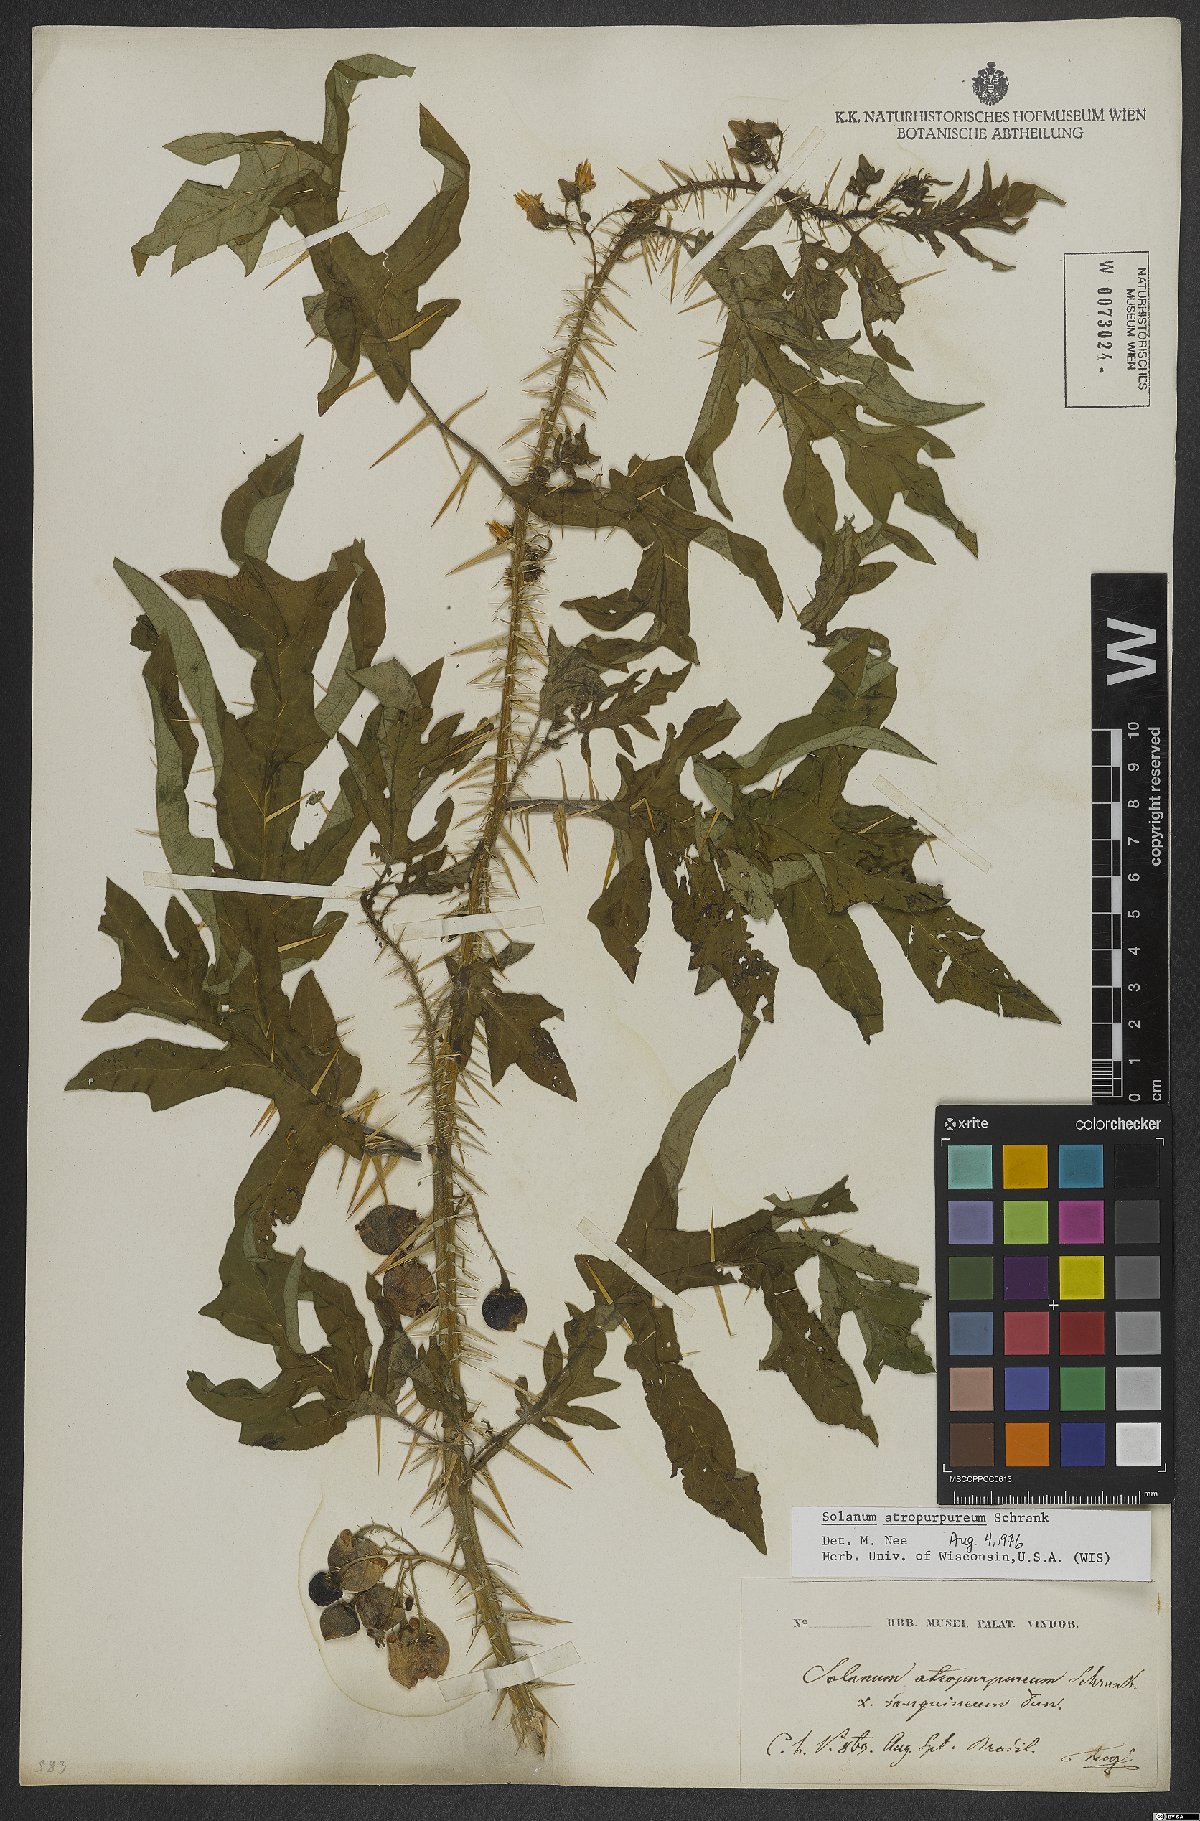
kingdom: Plantae
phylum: Tracheophyta
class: Magnoliopsida
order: Solanales
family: Solanaceae
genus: Solanum
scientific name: Solanum atropurpureum
